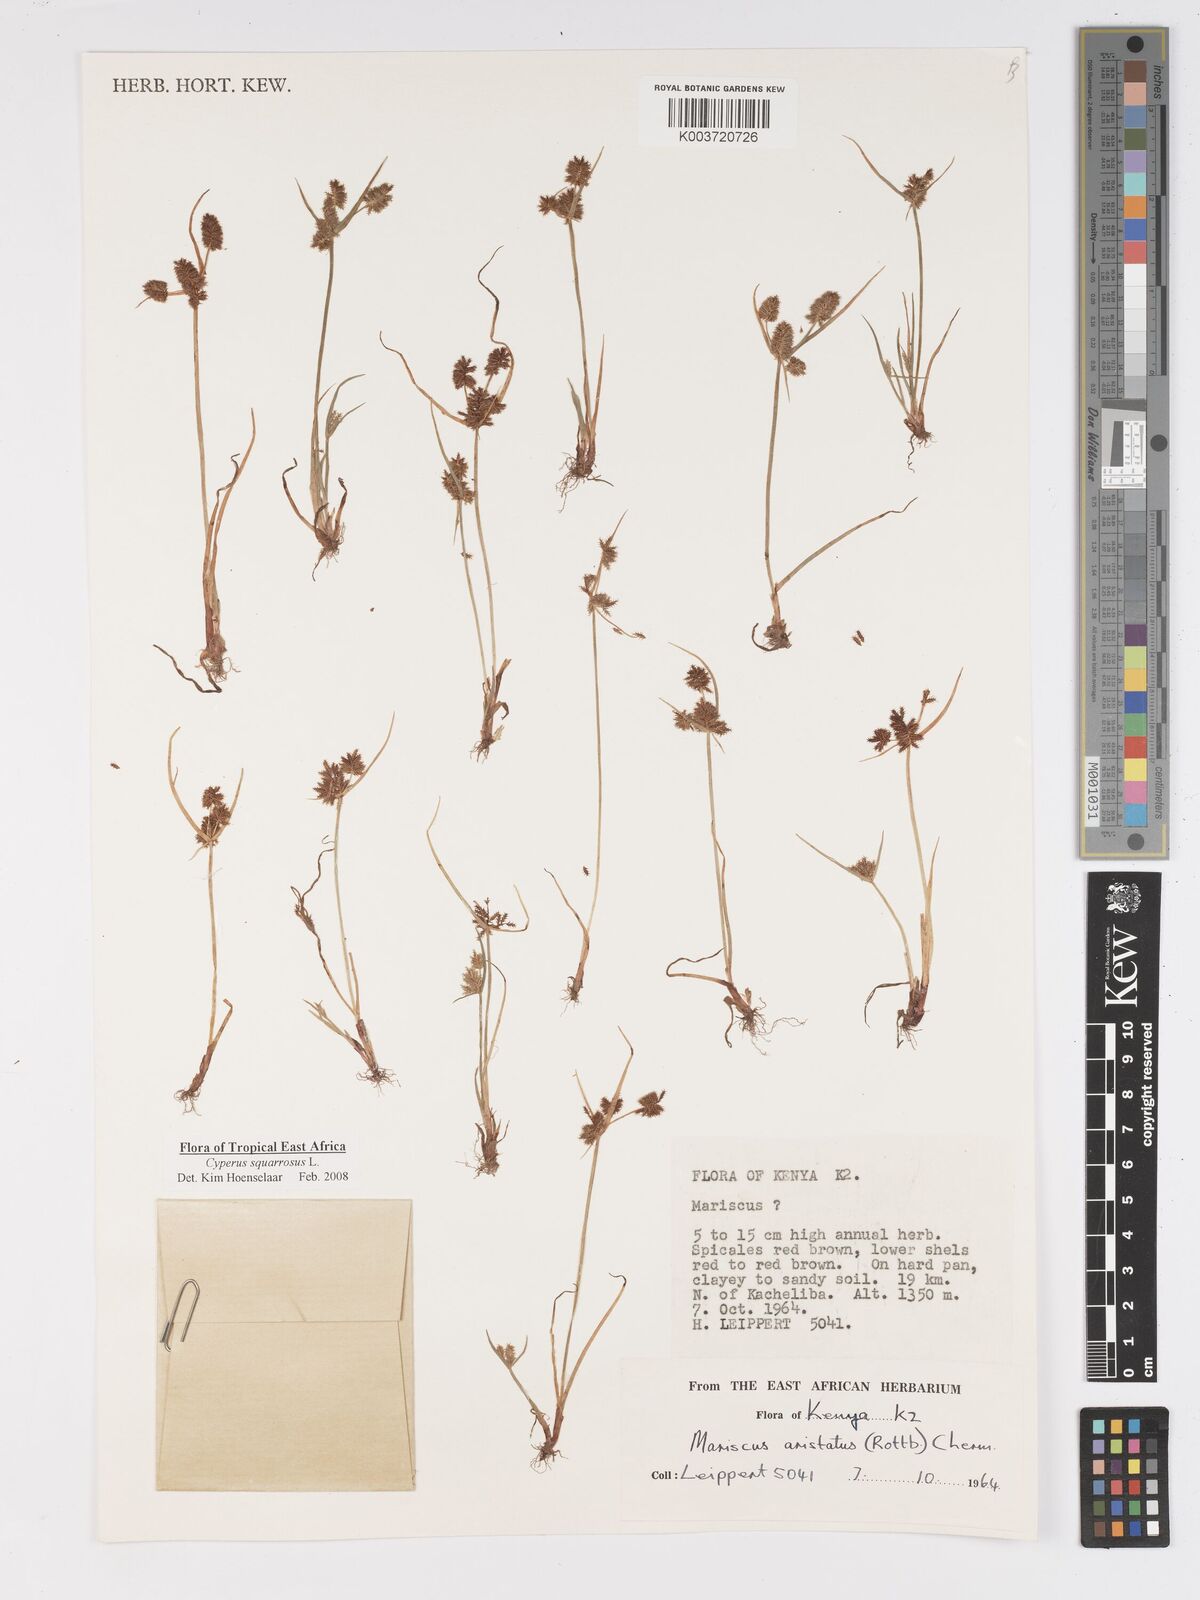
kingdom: Plantae
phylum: Tracheophyta
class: Liliopsida
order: Poales
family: Cyperaceae
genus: Cyperus
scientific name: Cyperus squarrosus
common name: Awned cyperus
